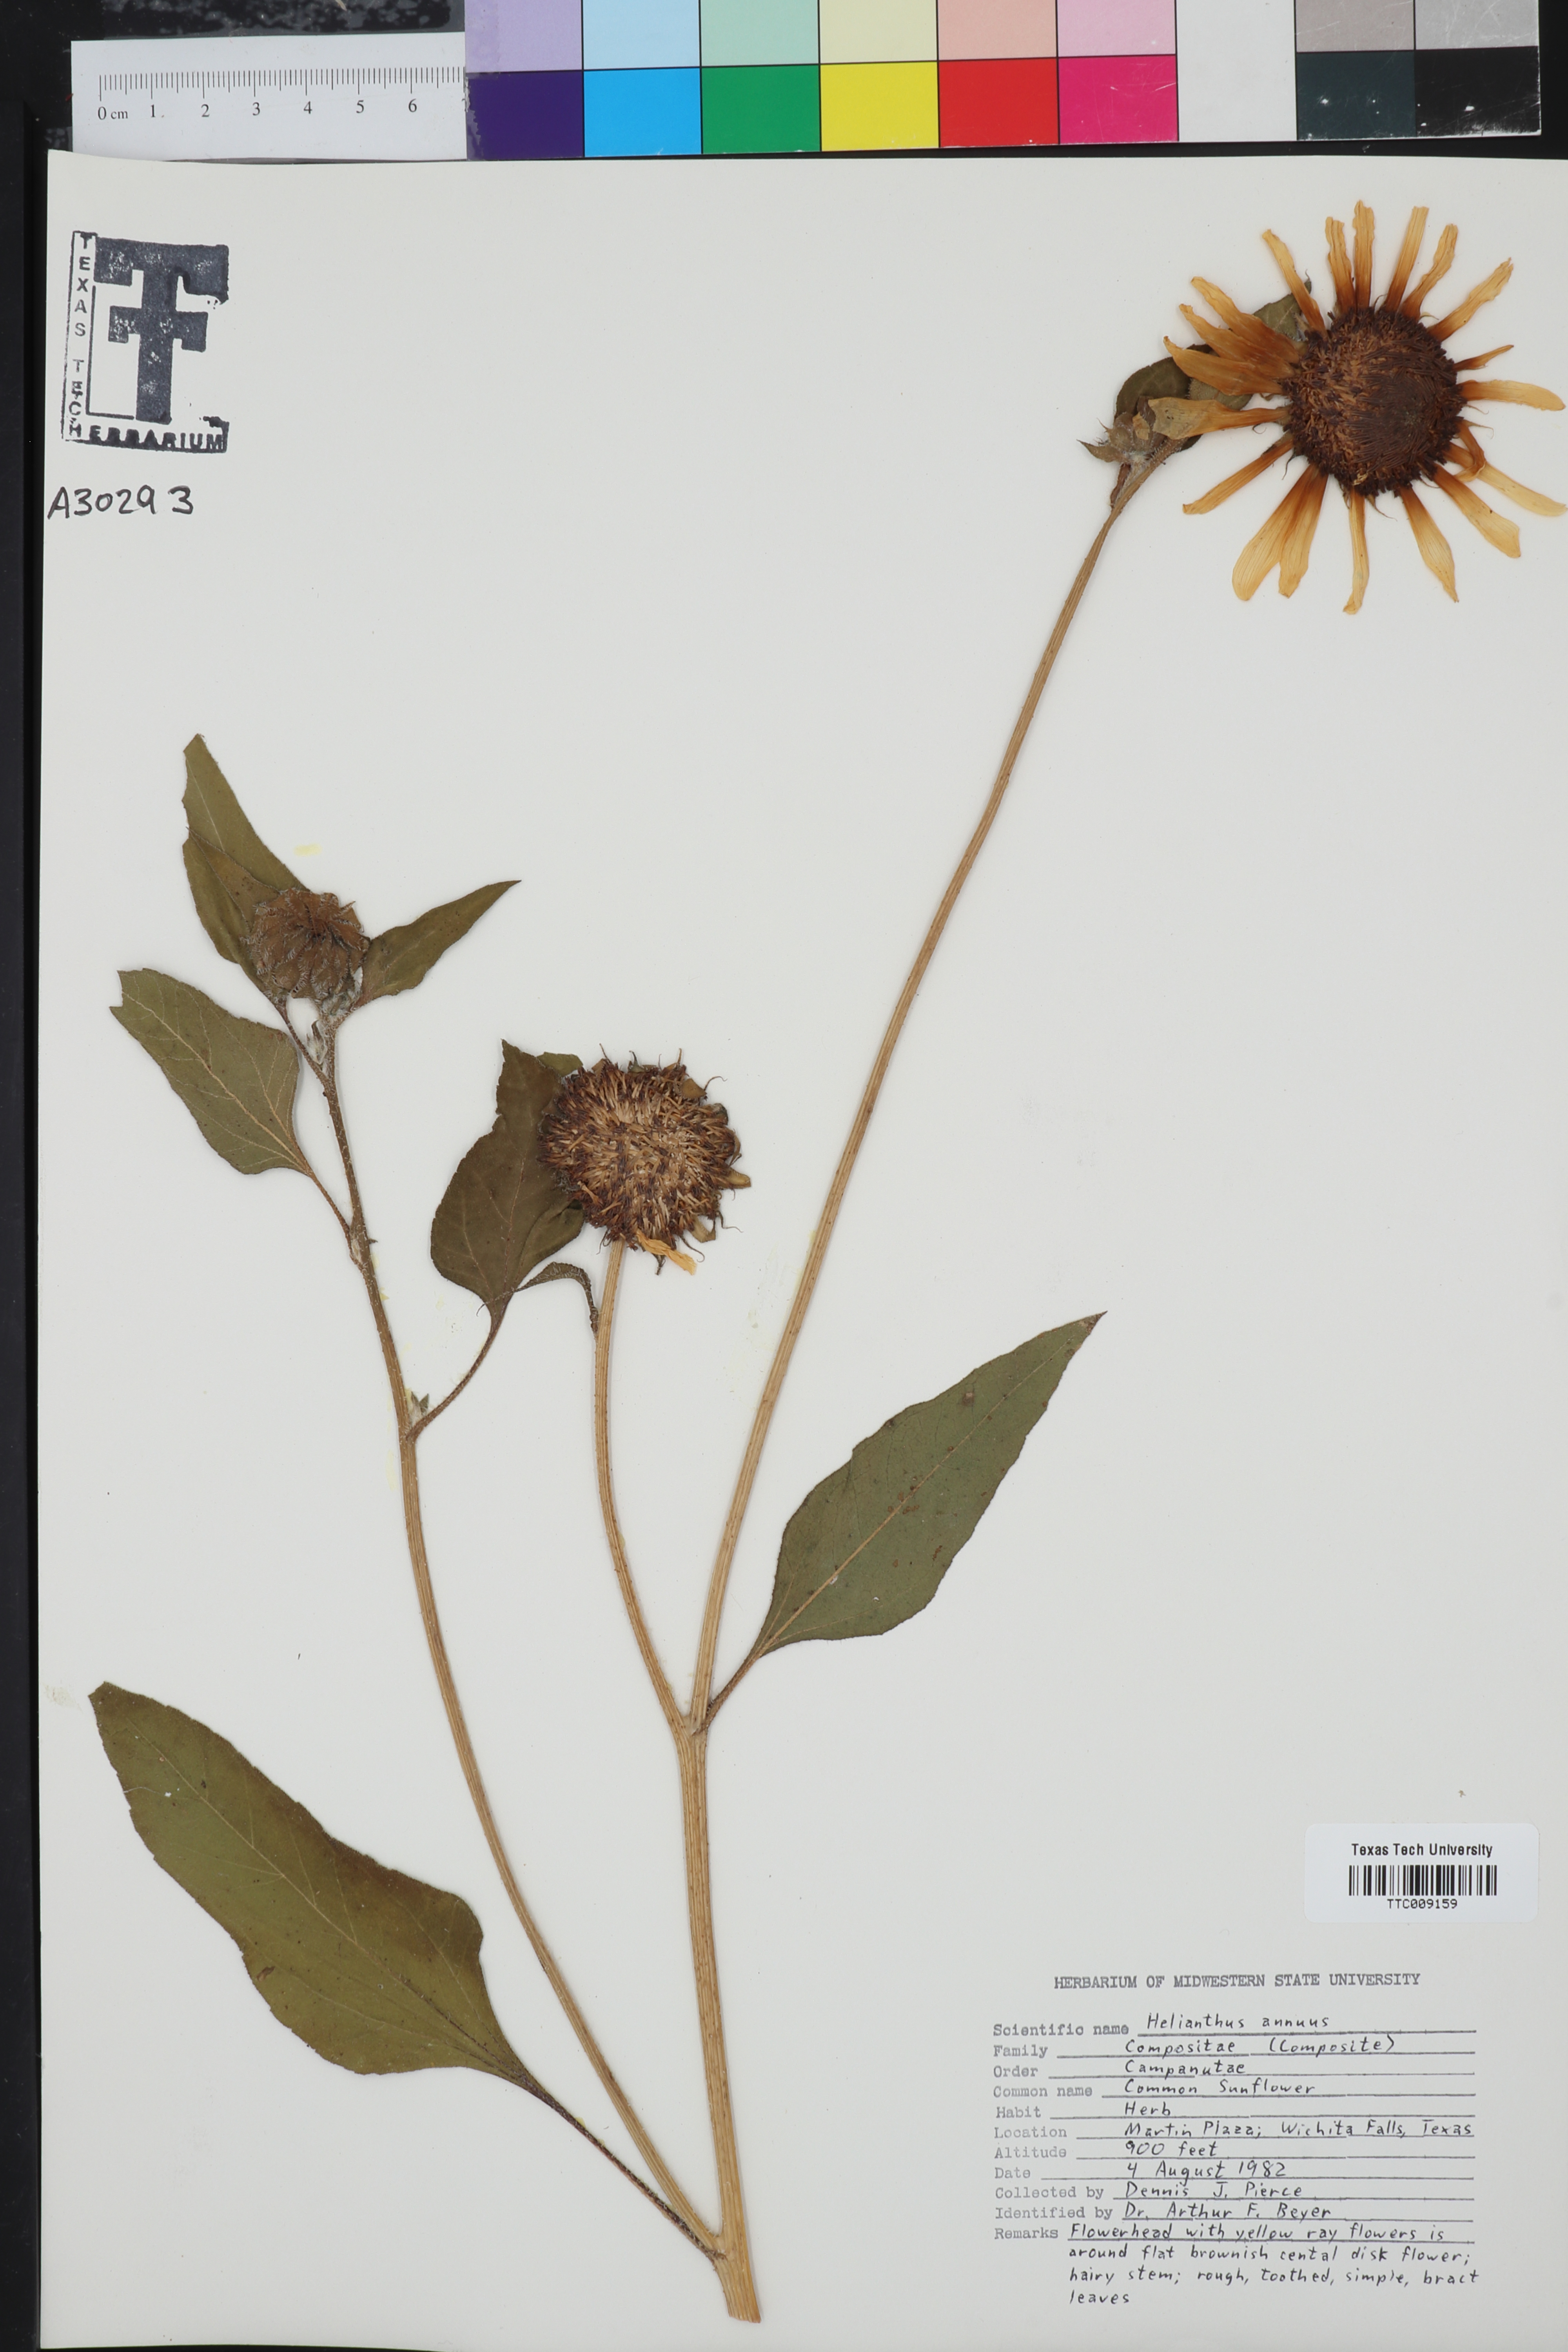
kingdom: Plantae
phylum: Tracheophyta
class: Magnoliopsida
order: Asterales
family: Asteraceae
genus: Helianthus
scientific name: Helianthus annuus
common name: Sunflower
